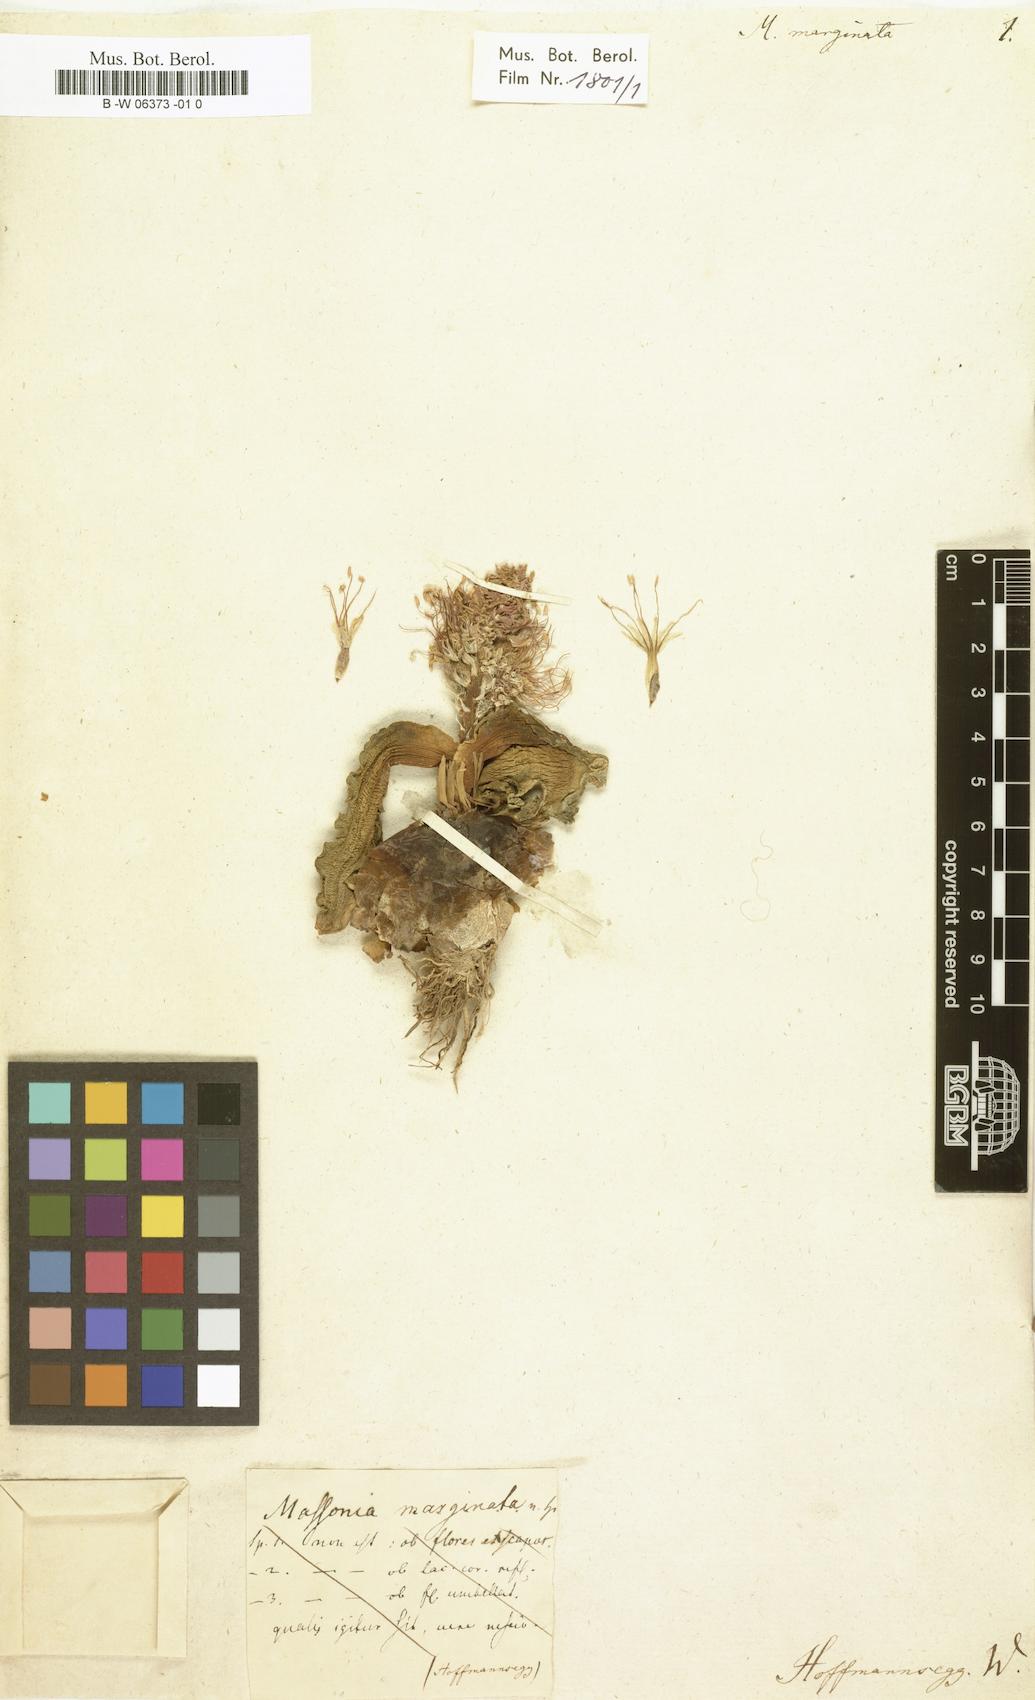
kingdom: Plantae
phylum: Tracheophyta
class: Liliopsida
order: Asparagales
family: Asparagaceae
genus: Daubenya
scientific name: Daubenya marginata
